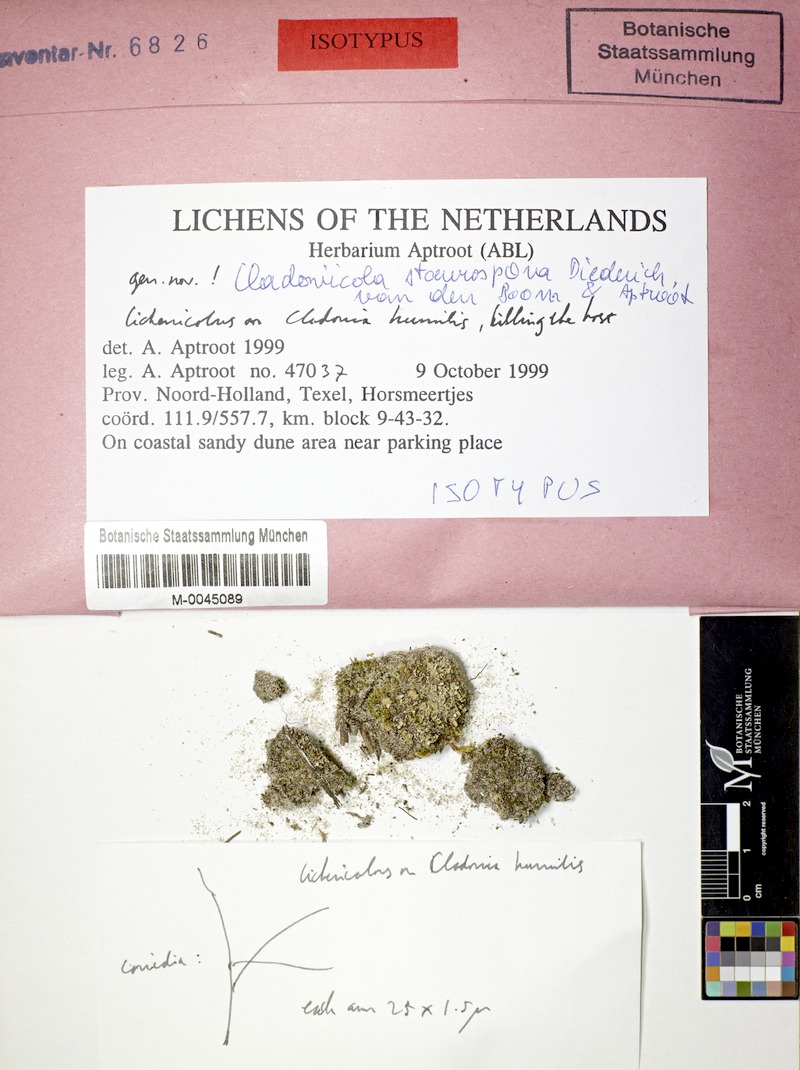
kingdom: Fungi
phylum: Ascomycota
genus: Cladoniicola
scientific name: Cladoniicola staurospora
